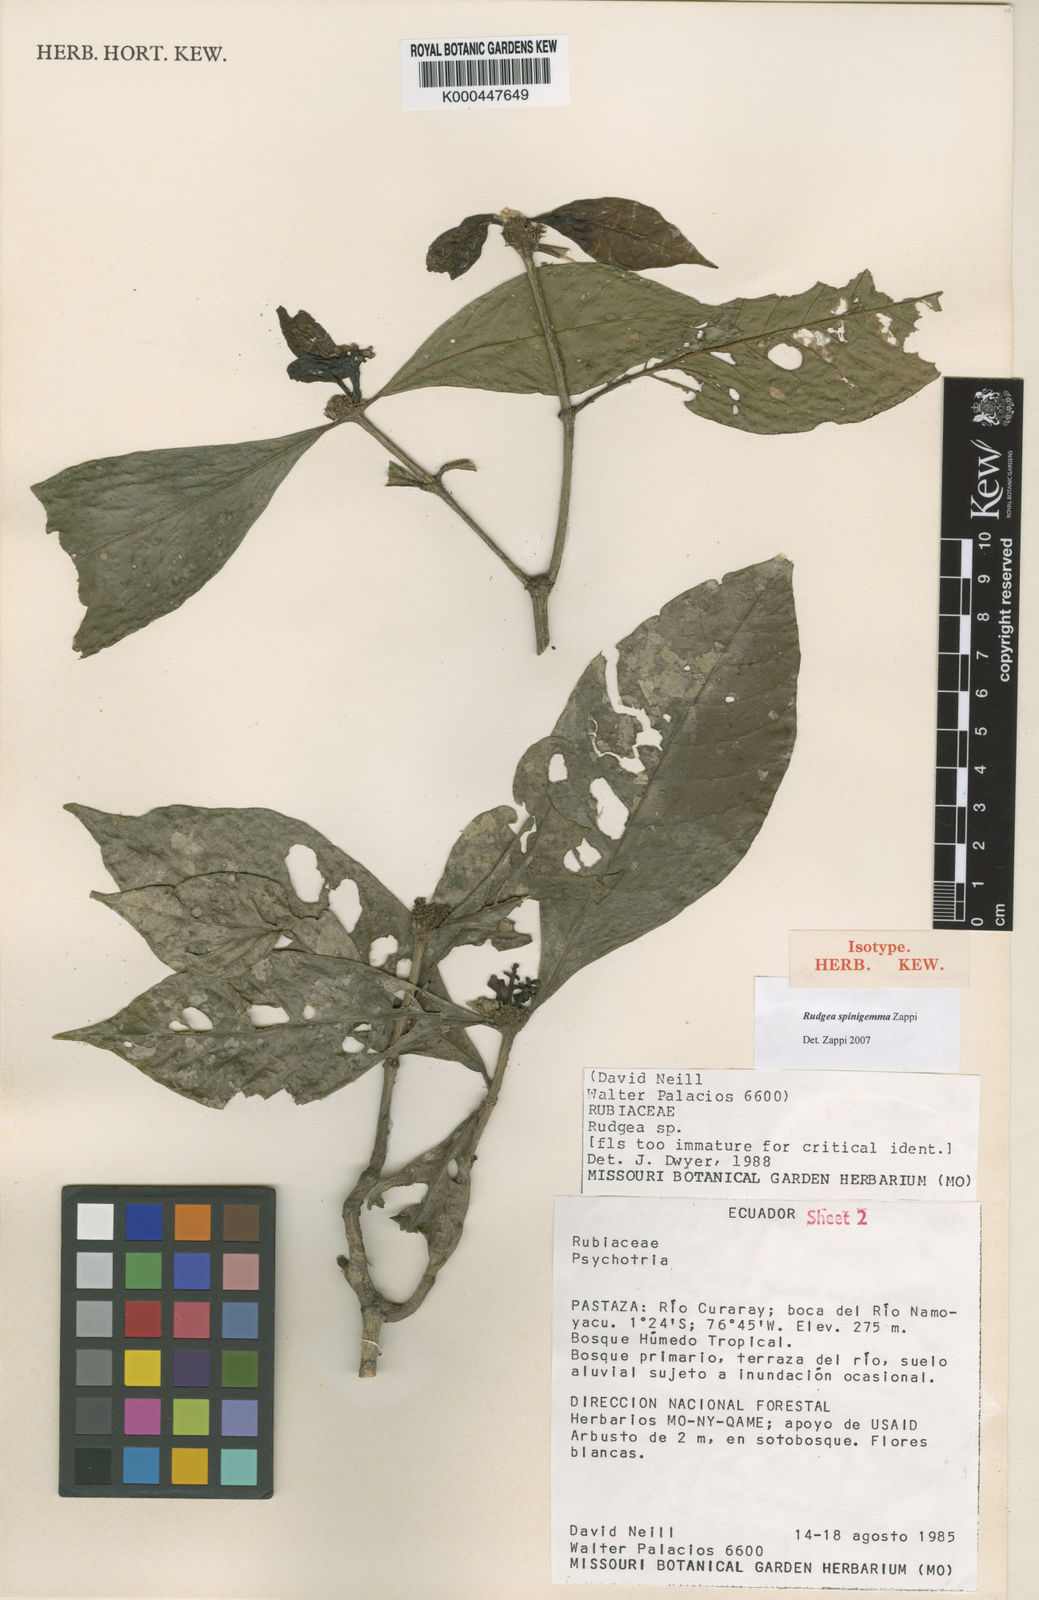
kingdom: Plantae
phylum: Tracheophyta
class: Magnoliopsida
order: Gentianales
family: Rubiaceae
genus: Rudgea
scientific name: Rudgea spinigemma
